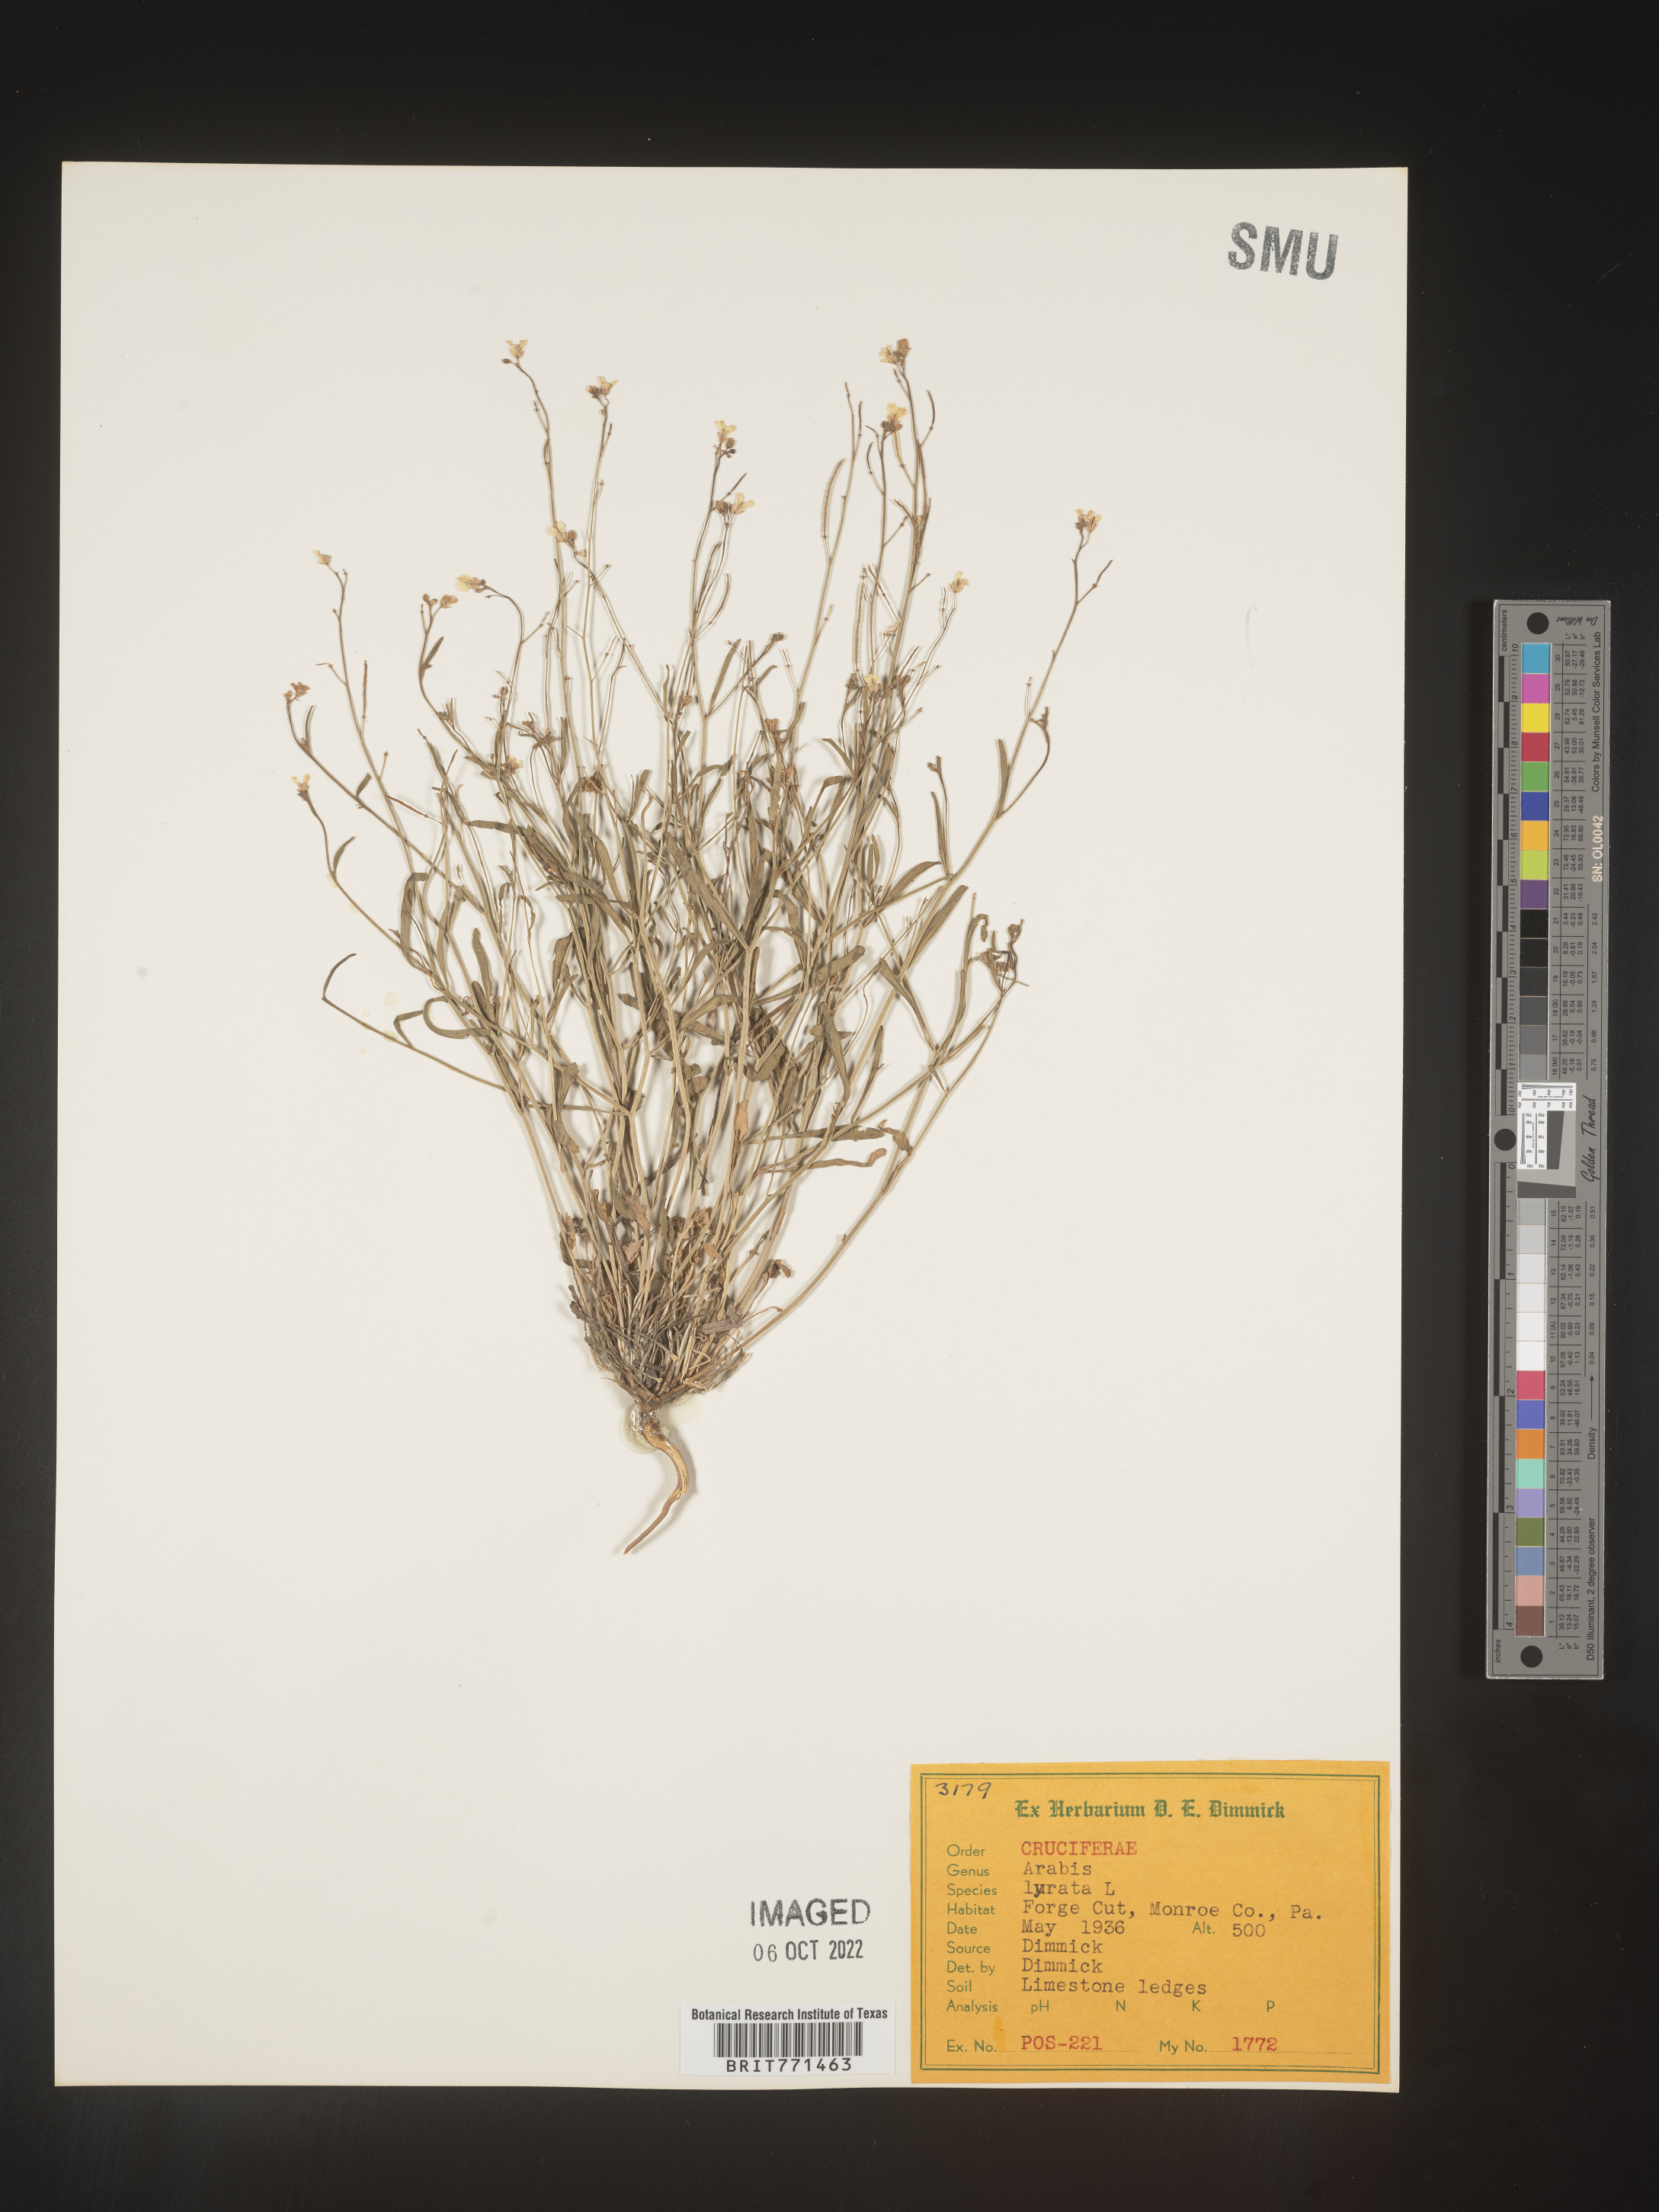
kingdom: Plantae
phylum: Tracheophyta
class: Magnoliopsida
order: Brassicales
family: Brassicaceae
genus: Arabidopsis
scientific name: Arabidopsis lyrata
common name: Lyrate rockcress
